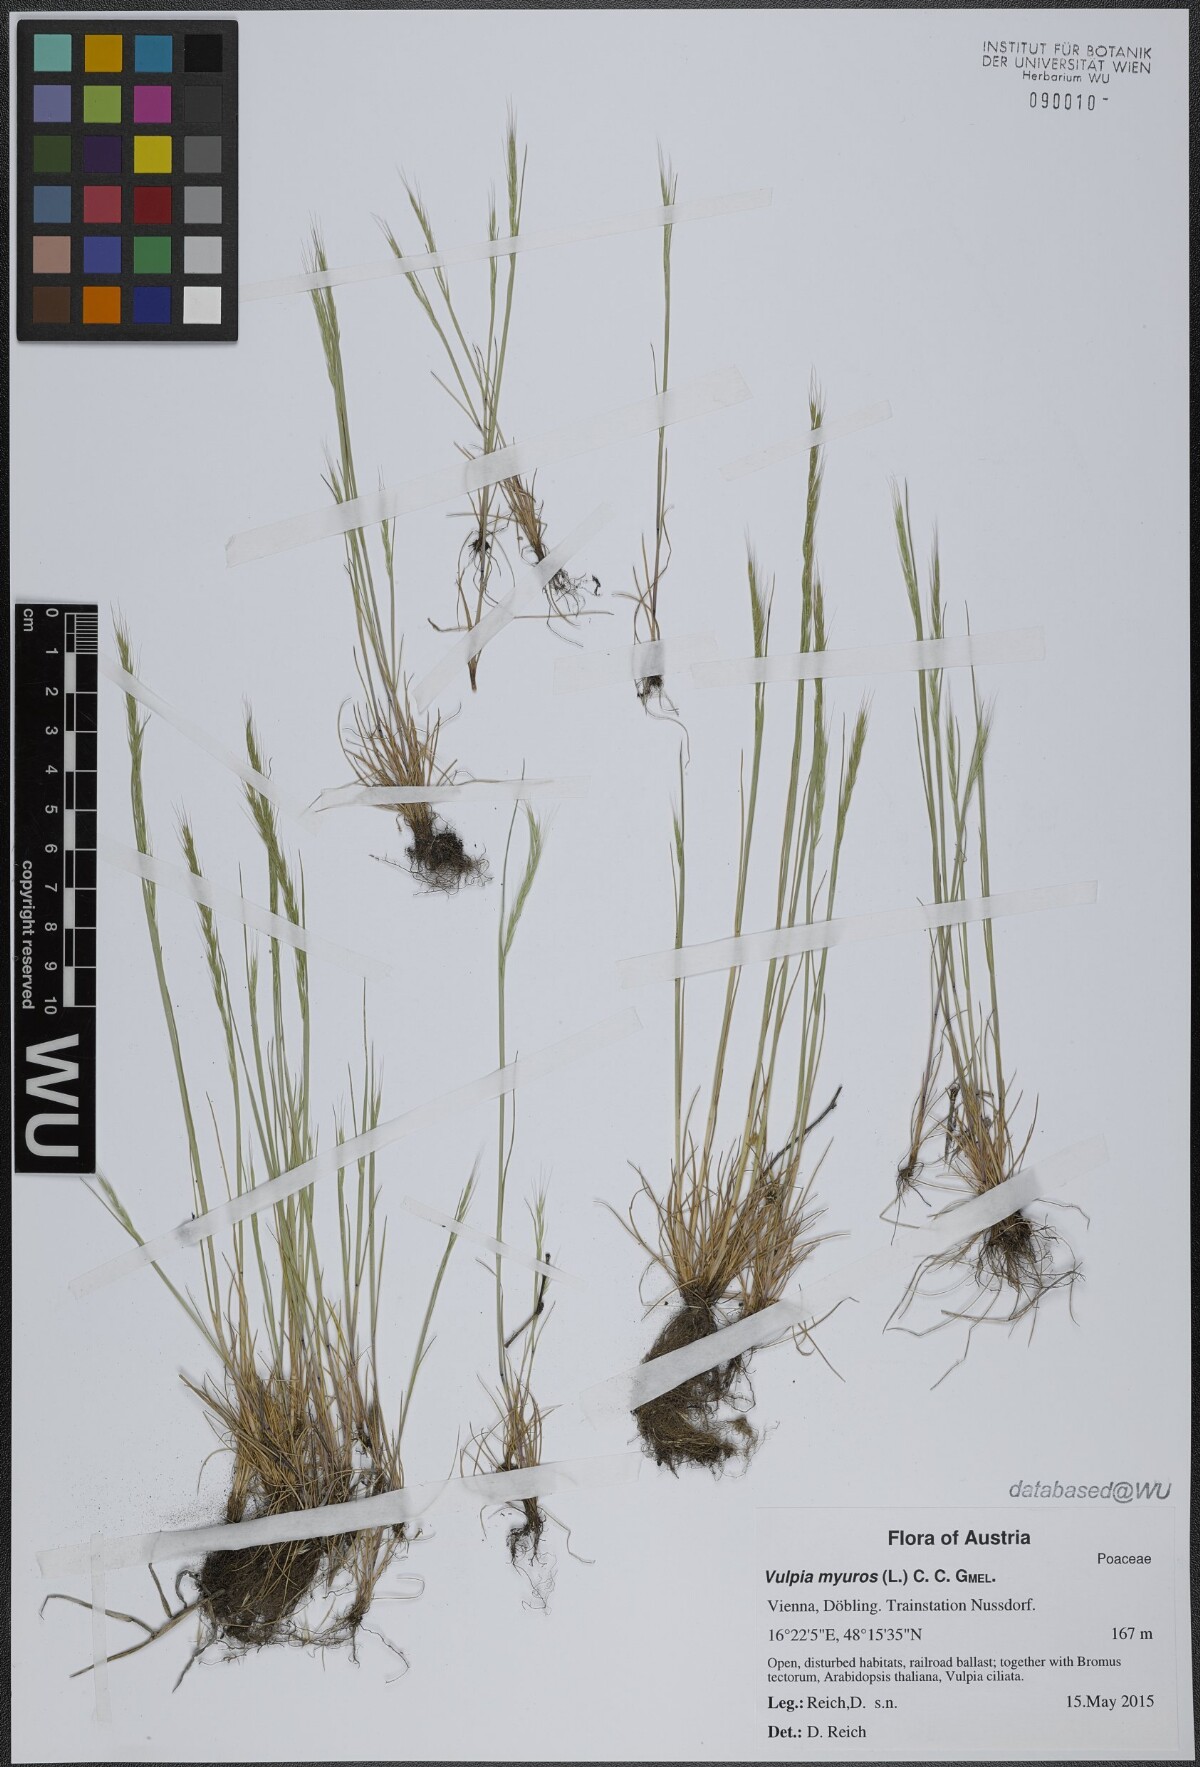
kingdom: Plantae
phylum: Tracheophyta
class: Liliopsida
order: Poales
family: Poaceae
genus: Festuca
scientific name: Festuca myuros
